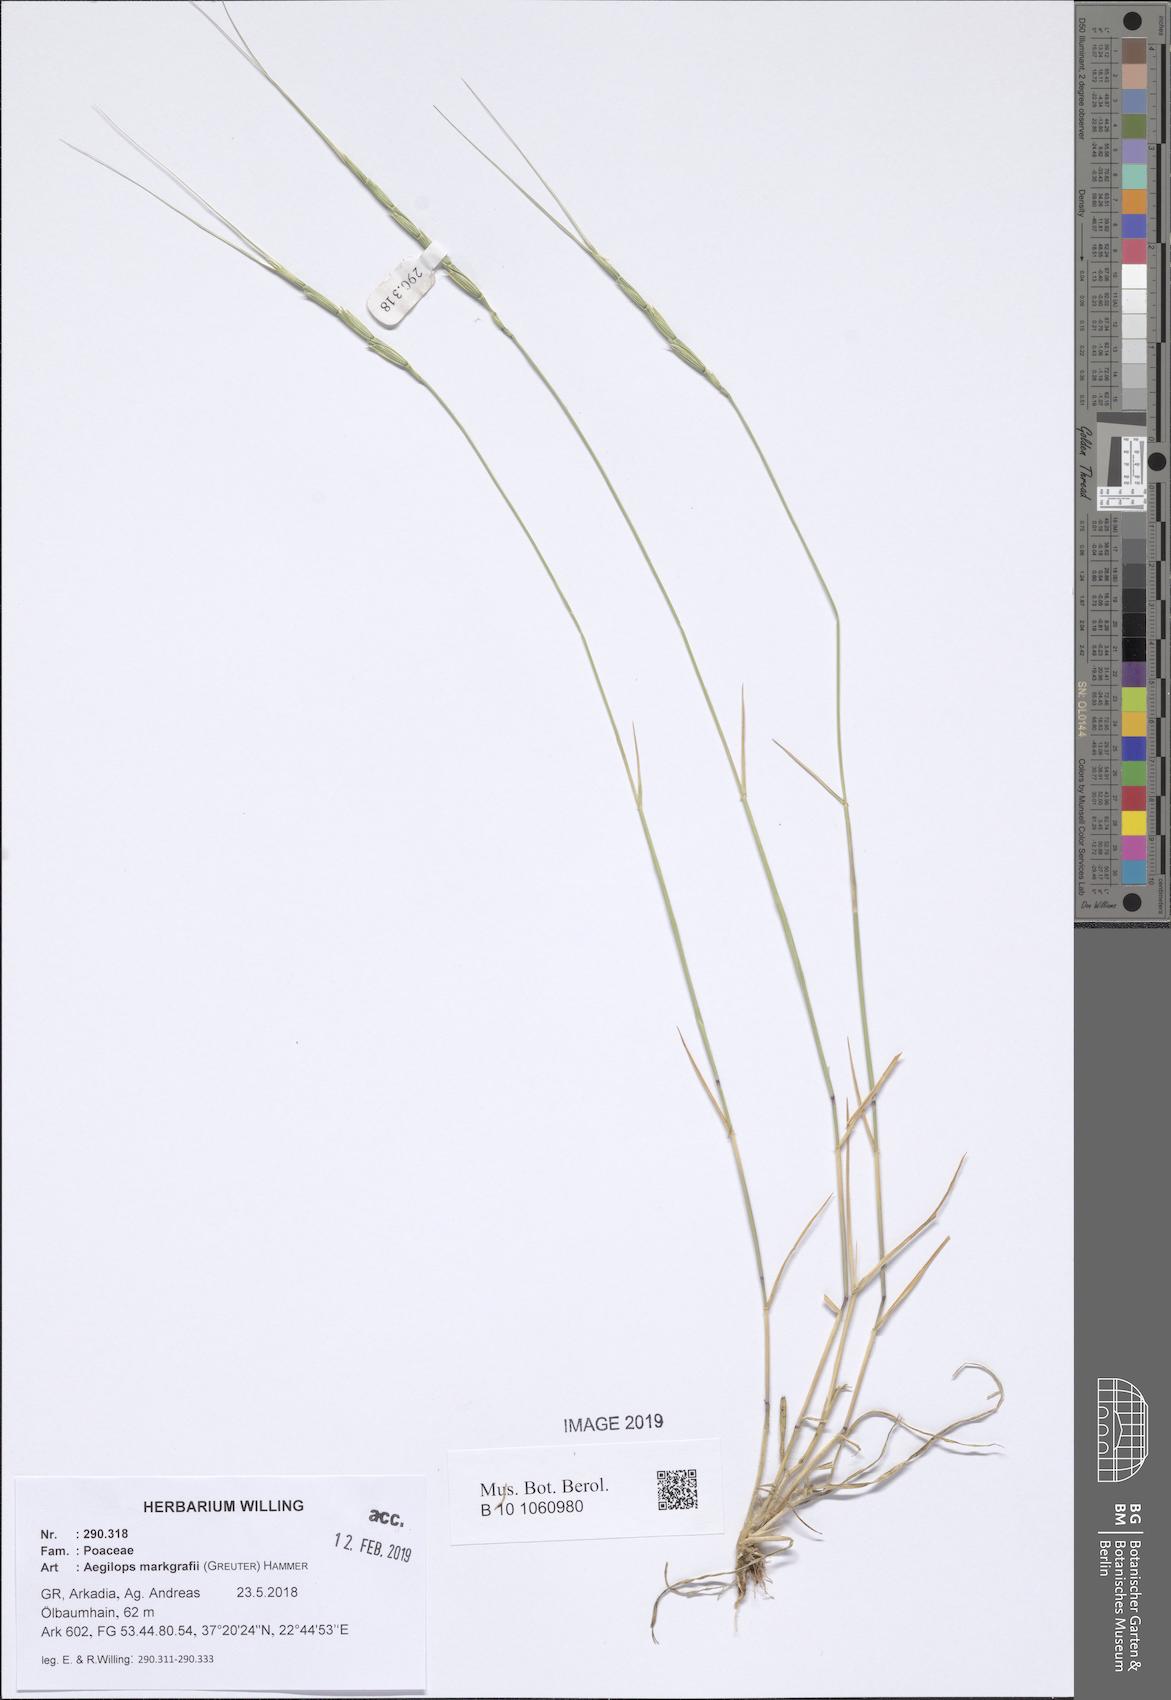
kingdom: Plantae
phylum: Tracheophyta
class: Liliopsida
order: Poales
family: Poaceae
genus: Aegilops
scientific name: Aegilops caudata
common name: Cretan hard-grass
